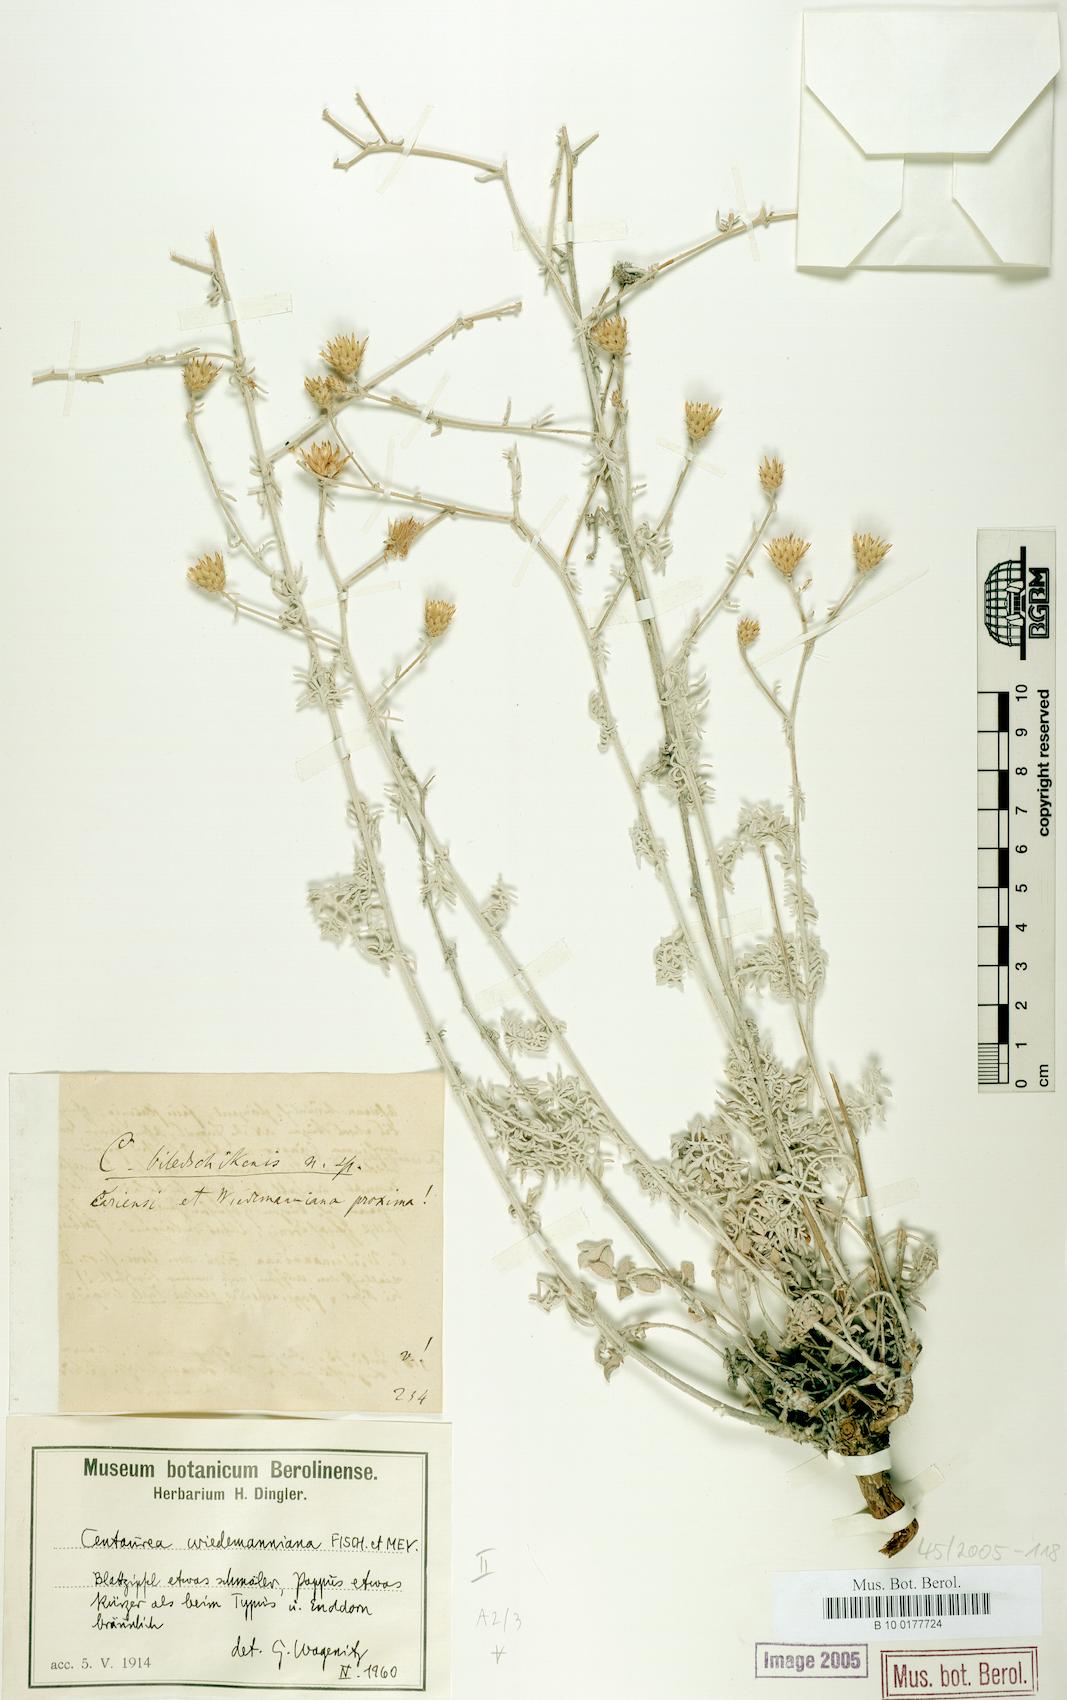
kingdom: Plantae
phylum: Tracheophyta
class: Magnoliopsida
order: Asterales
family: Asteraceae
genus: Centaurea
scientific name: Centaurea wiedemanniana
